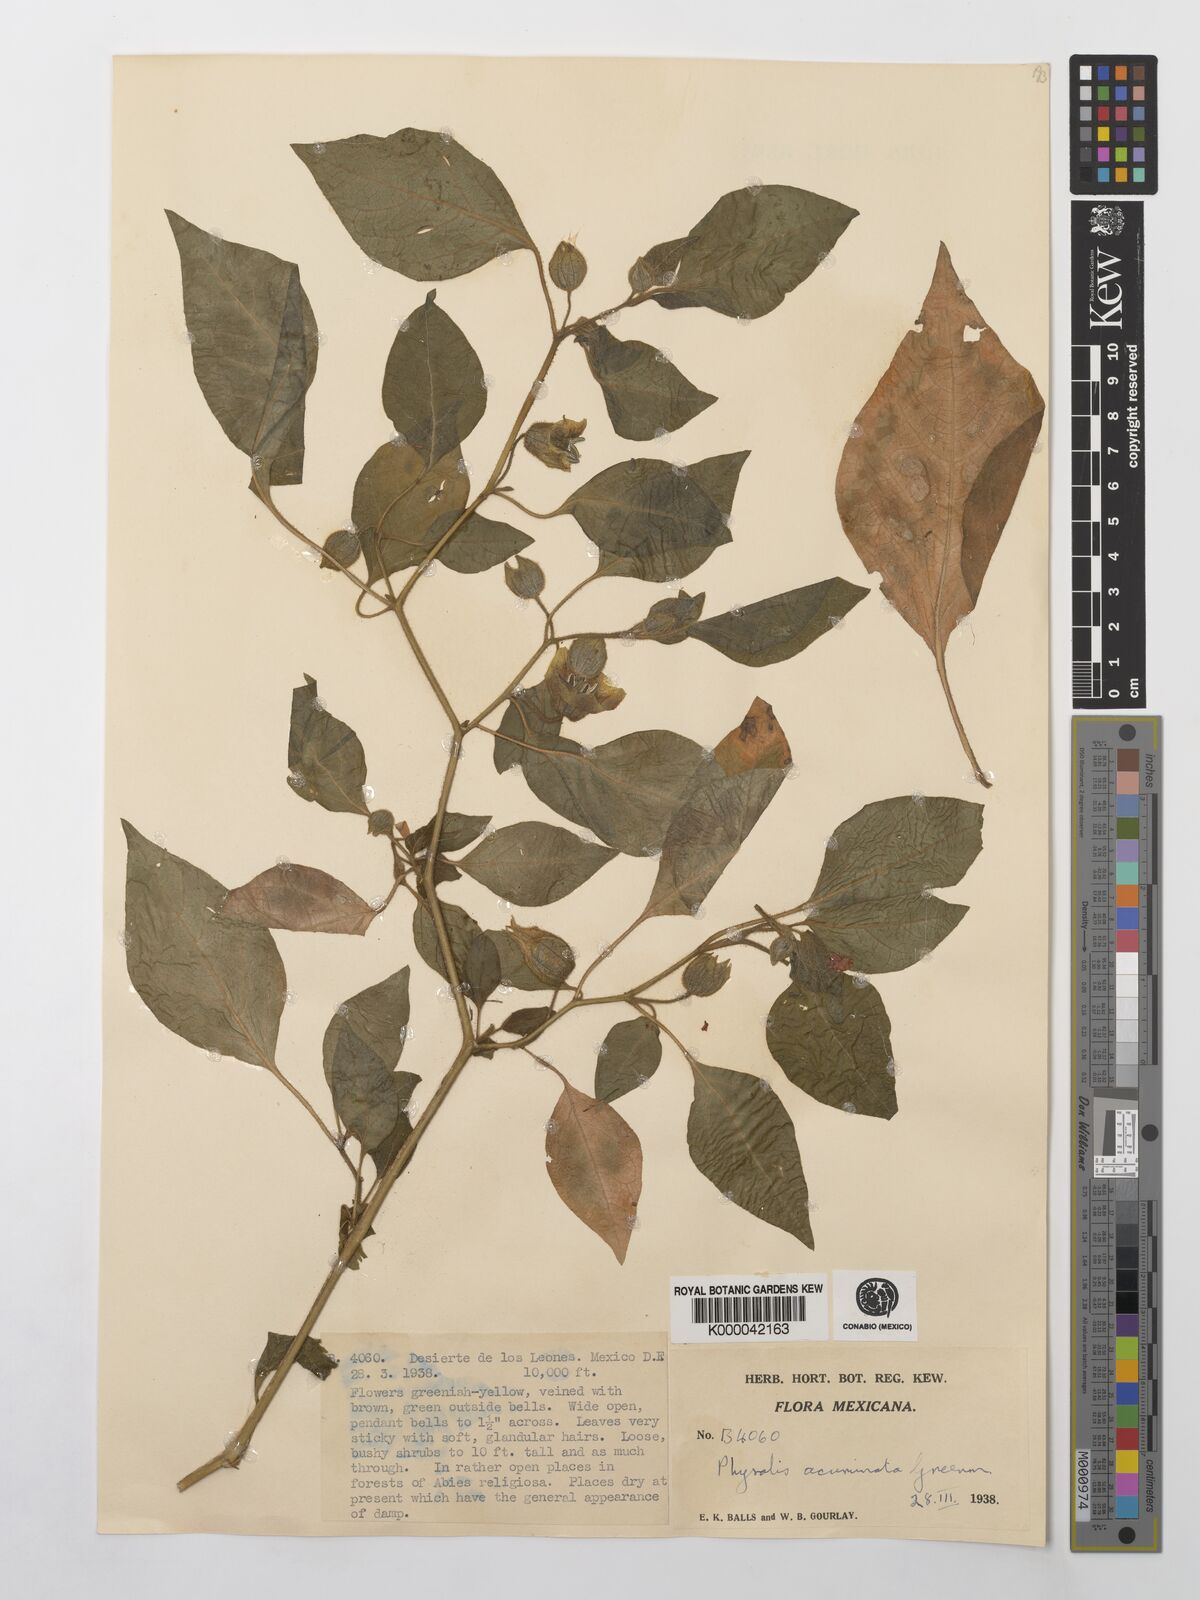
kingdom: Plantae
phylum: Tracheophyta
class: Magnoliopsida
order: Solanales
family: Solanaceae
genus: Physalis
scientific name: Physalis stapelioides
